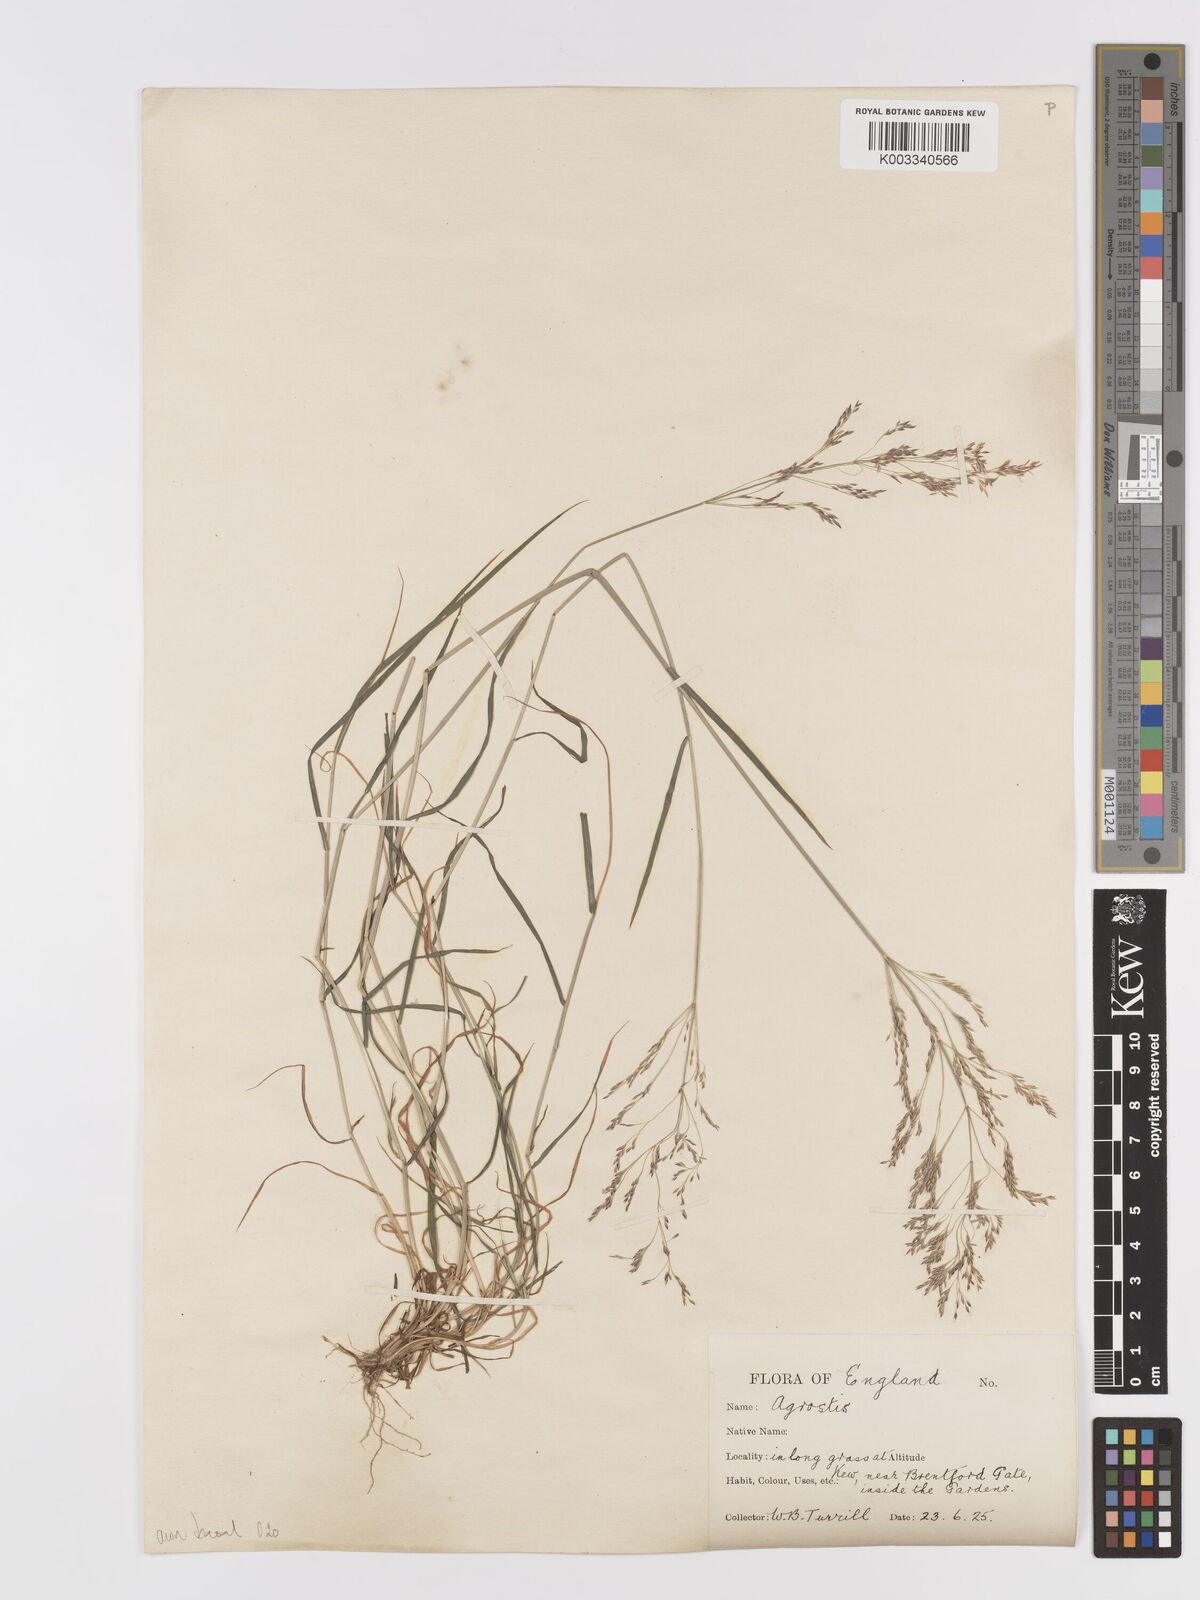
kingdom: Plantae
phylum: Tracheophyta
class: Liliopsida
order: Poales
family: Poaceae
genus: Agrostis
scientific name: Agrostis capillaris
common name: Colonial bentgrass
